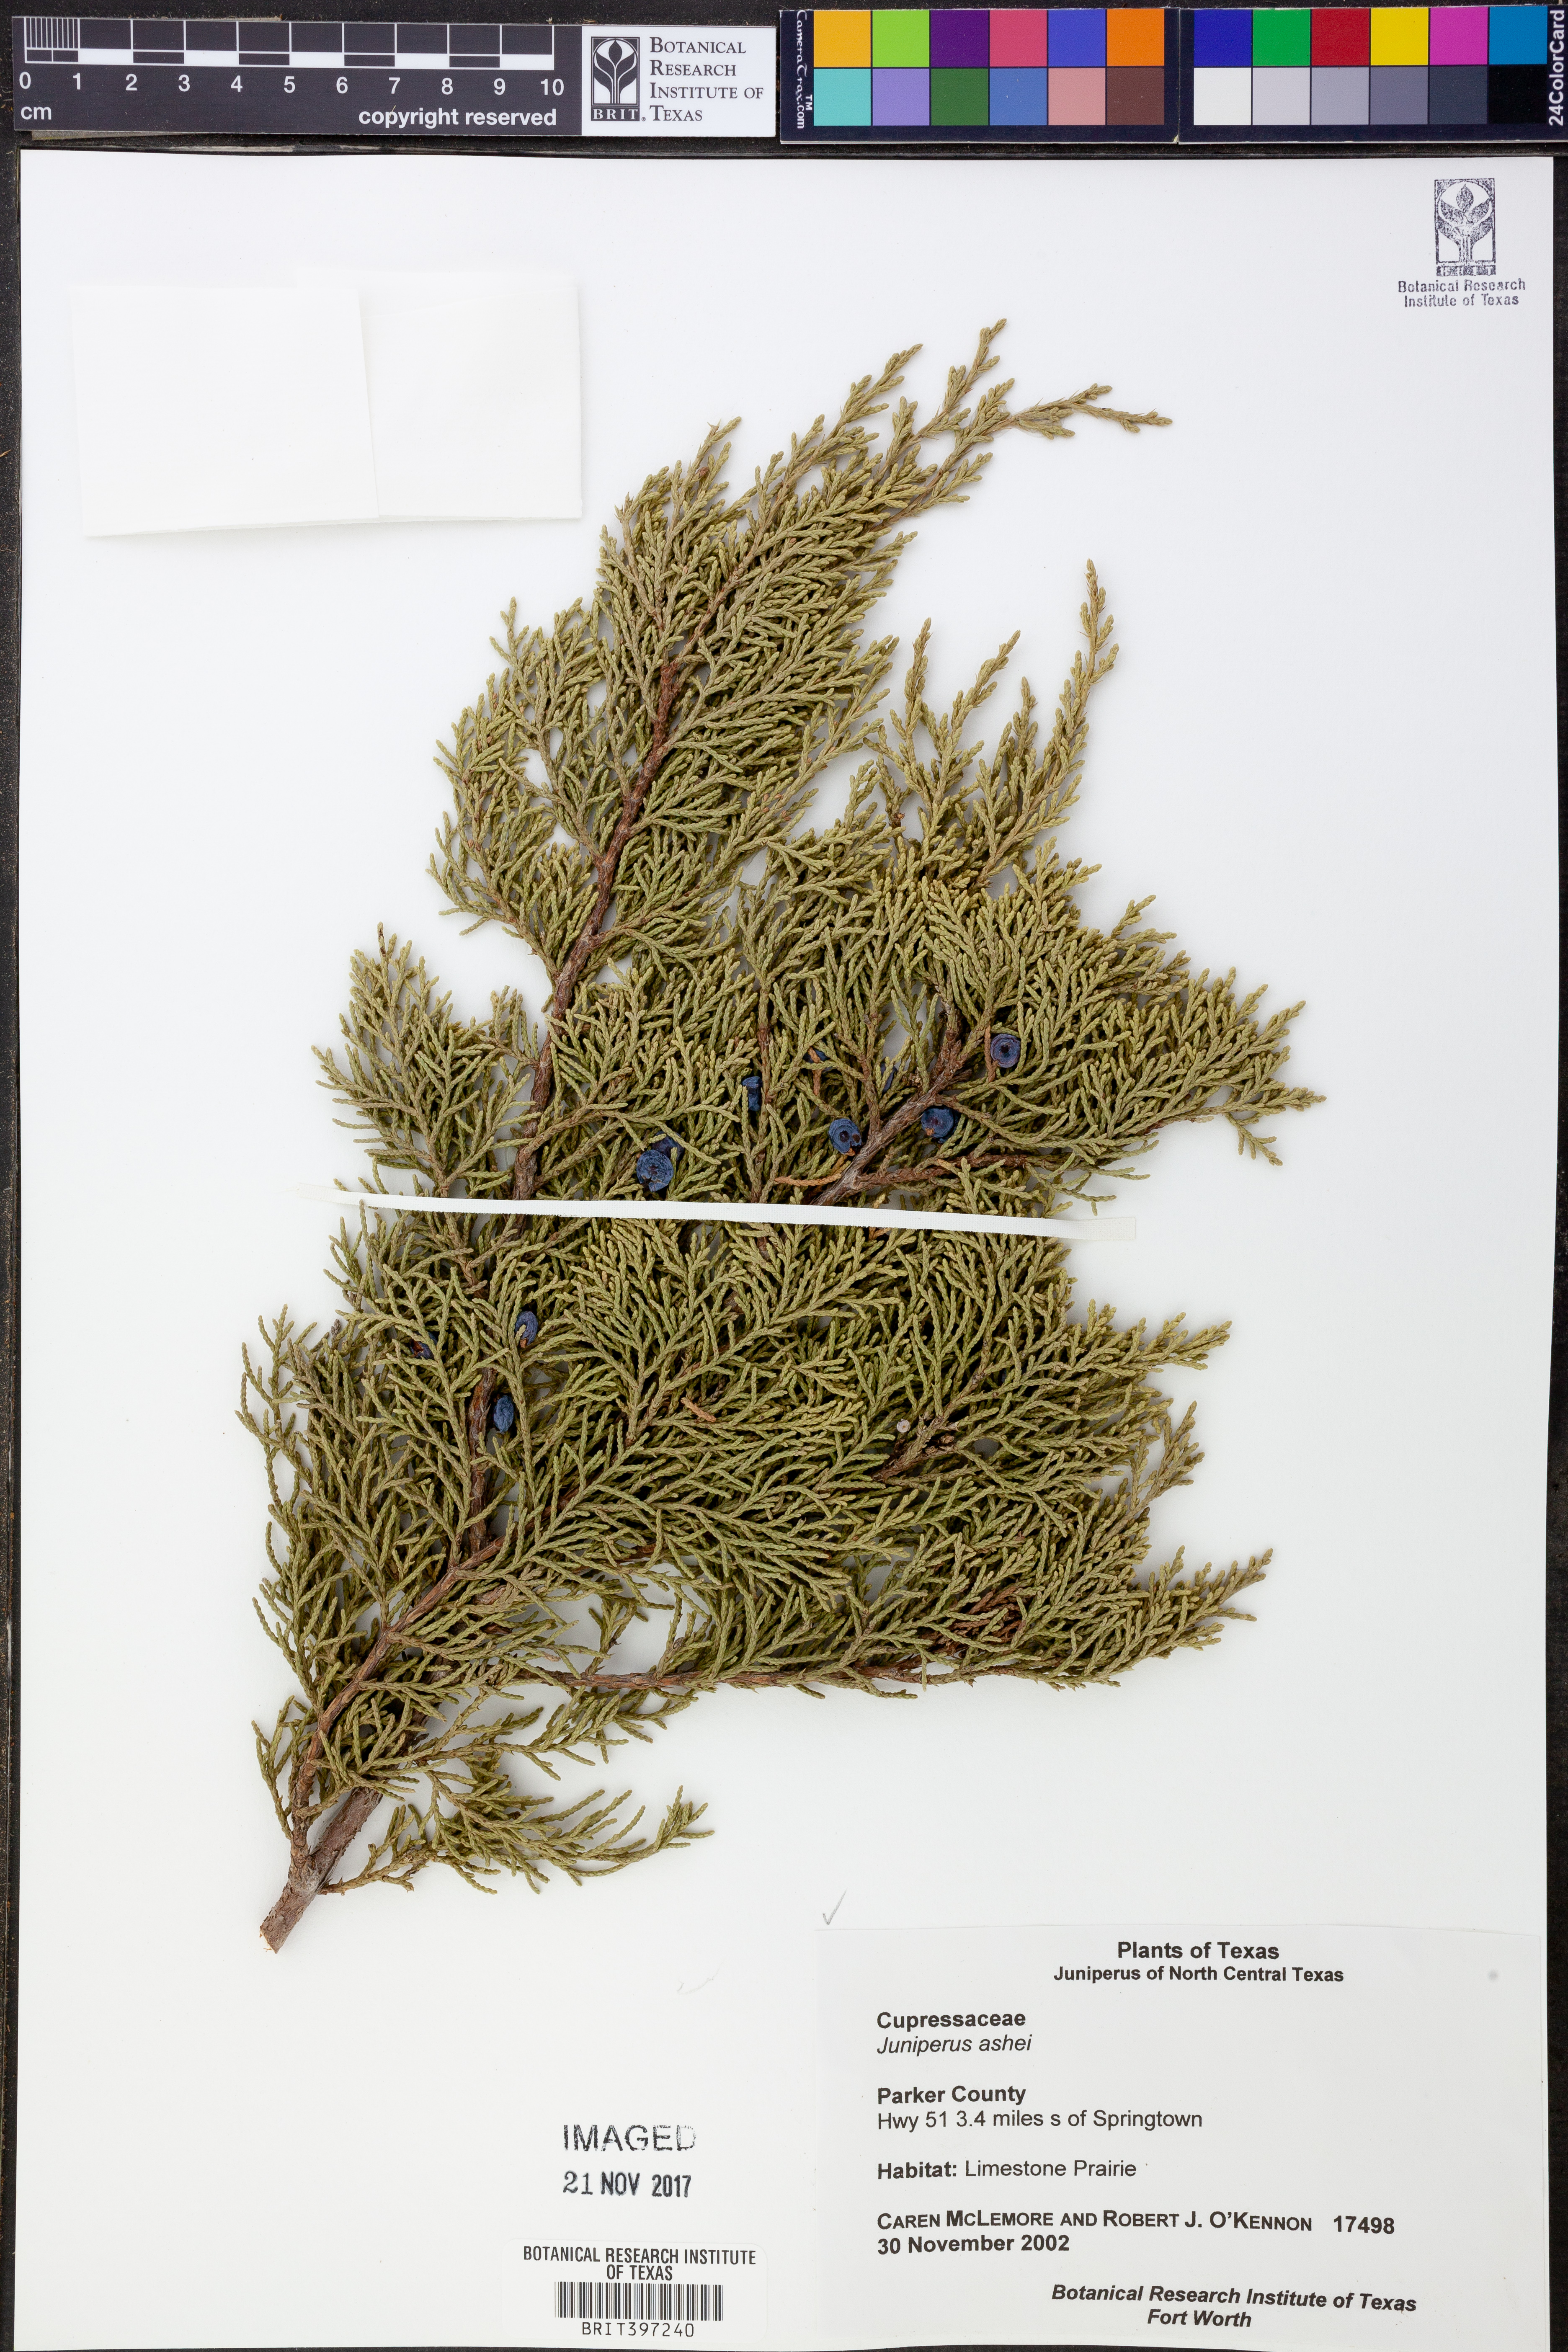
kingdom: Plantae
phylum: Tracheophyta
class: Pinopsida
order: Pinales
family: Cupressaceae
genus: Juniperus
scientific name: Juniperus ashei
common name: Mexican juniper
